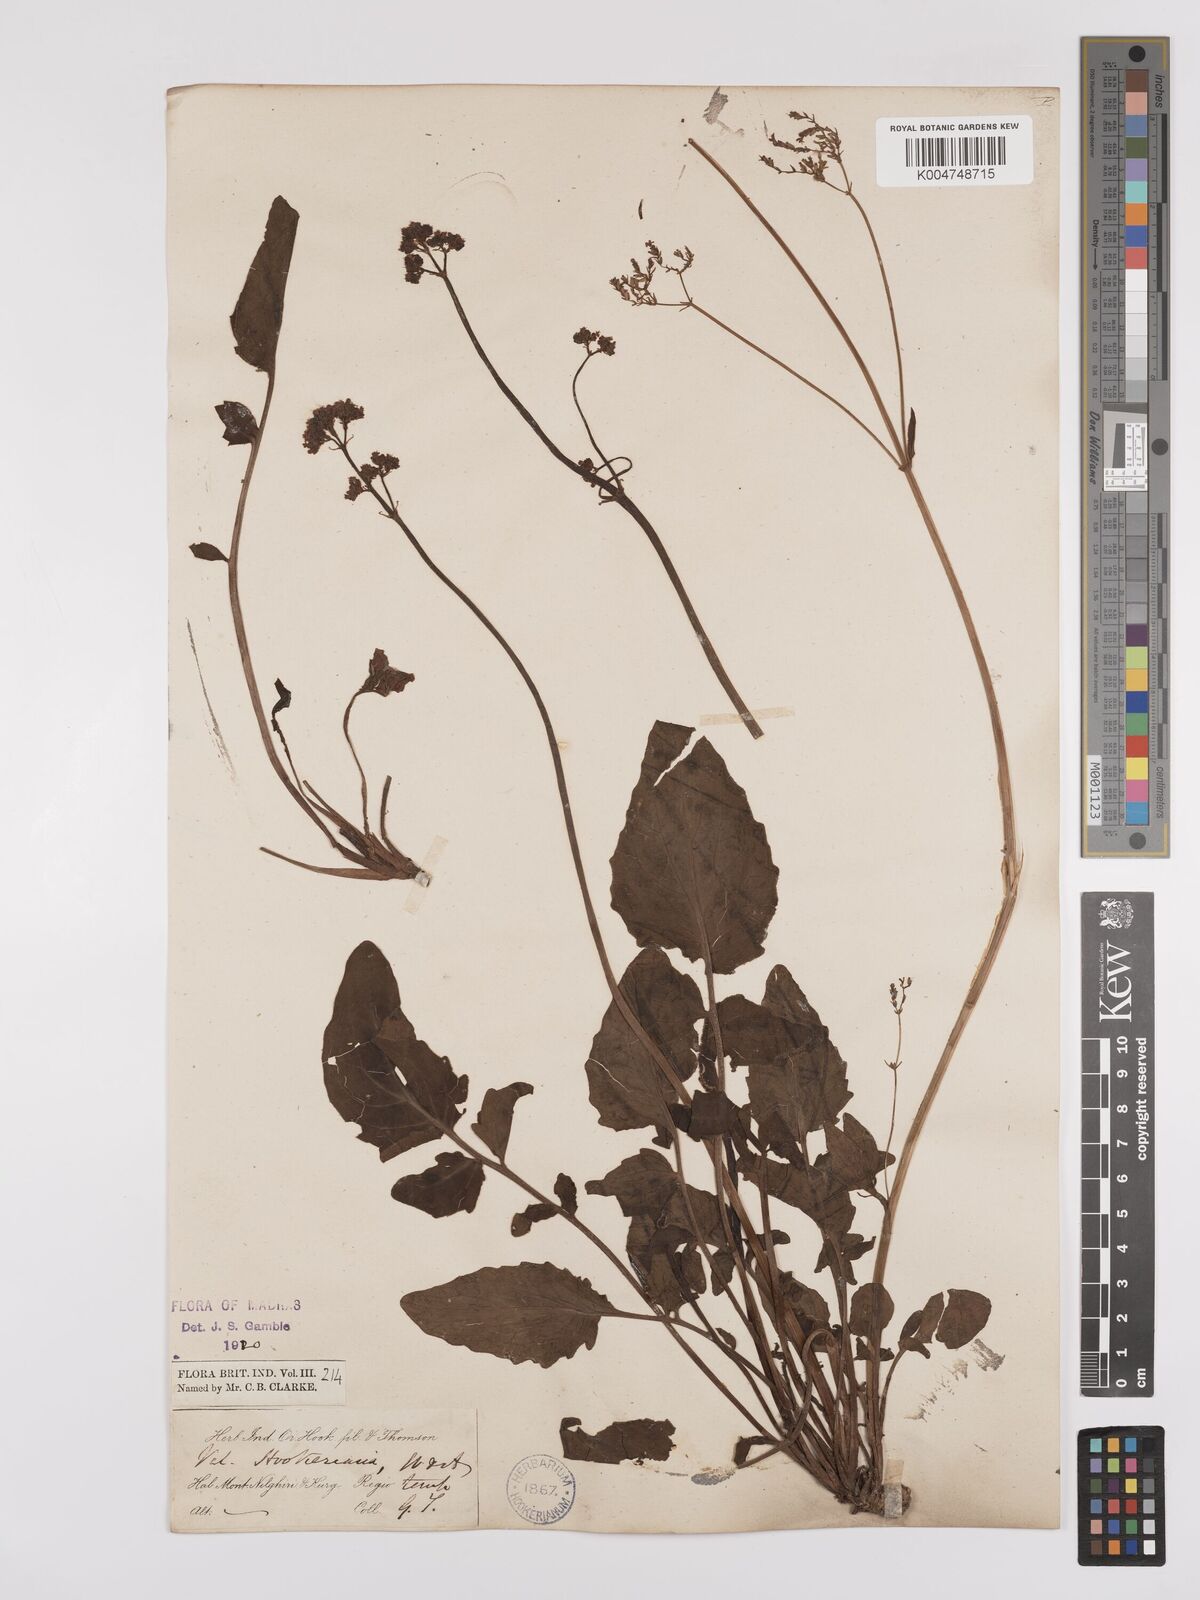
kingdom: Plantae
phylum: Tracheophyta
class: Magnoliopsida
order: Dipsacales
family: Caprifoliaceae
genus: Valeriana
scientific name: Valeriana hardwickei
